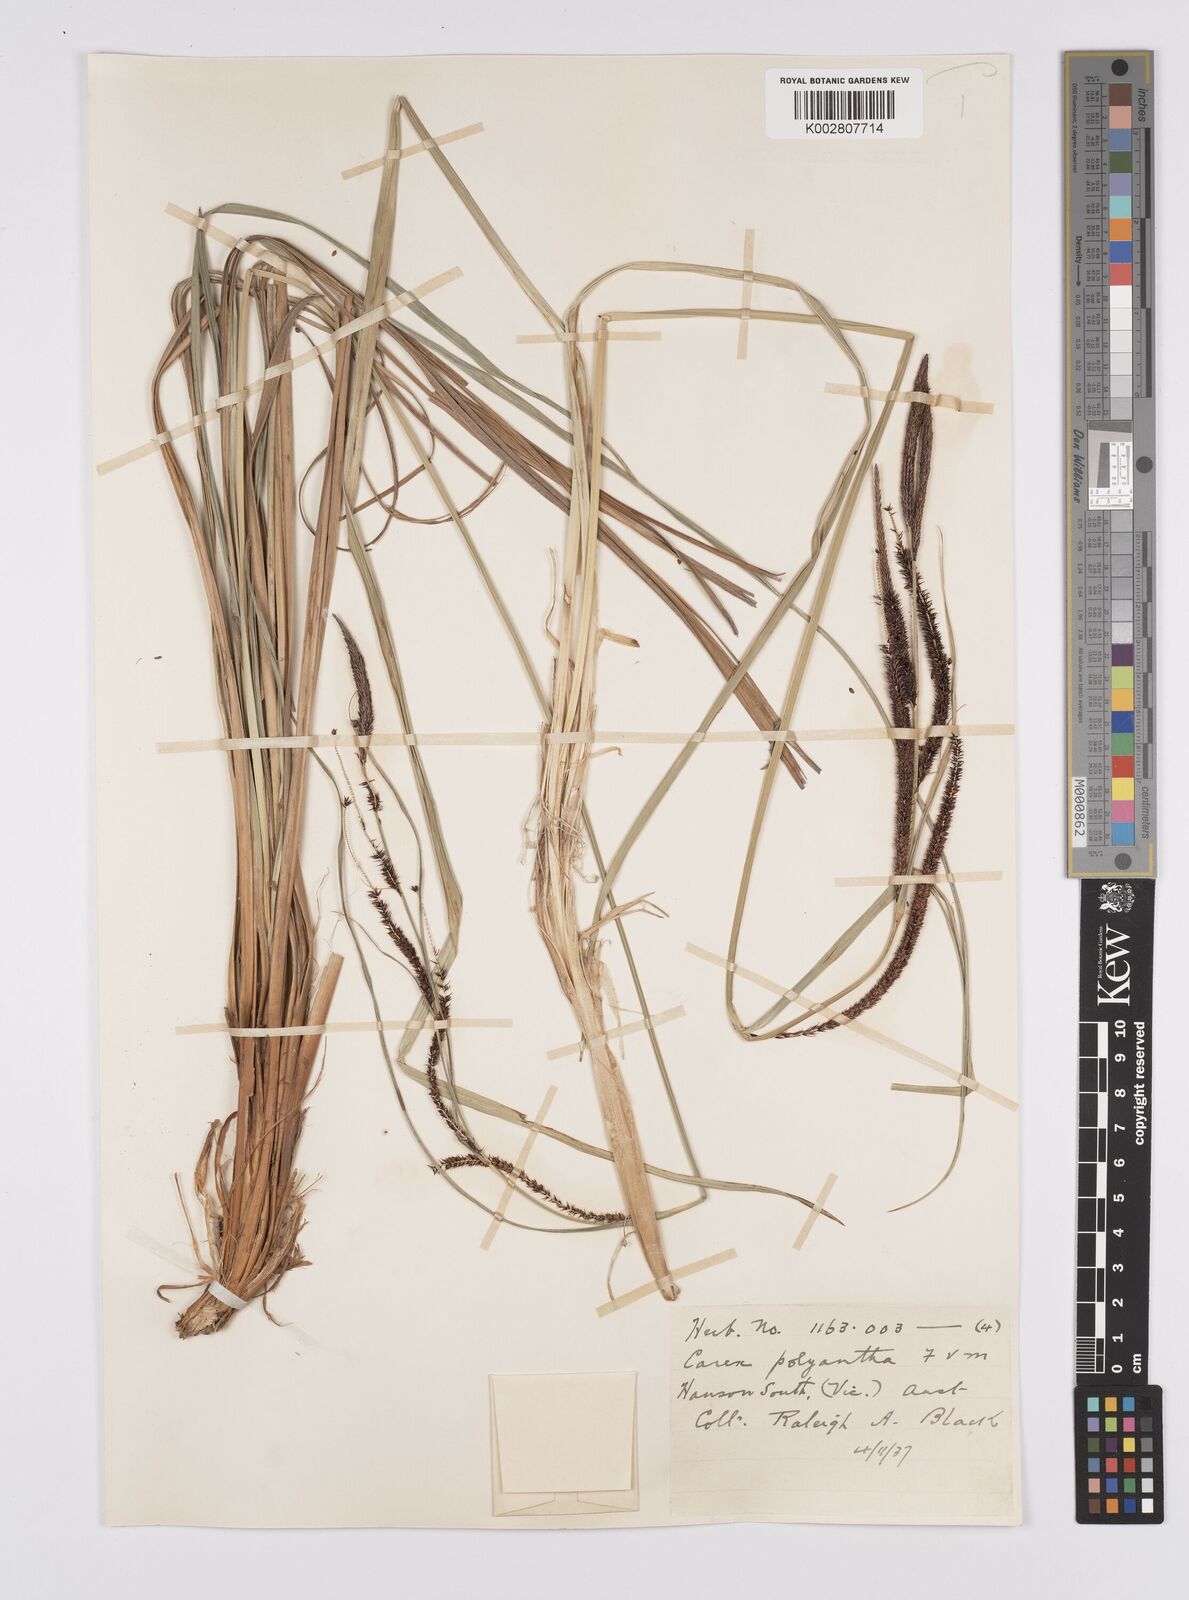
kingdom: Plantae
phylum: Tracheophyta
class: Liliopsida
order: Poales
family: Cyperaceae
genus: Carex
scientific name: Carex polyantha
